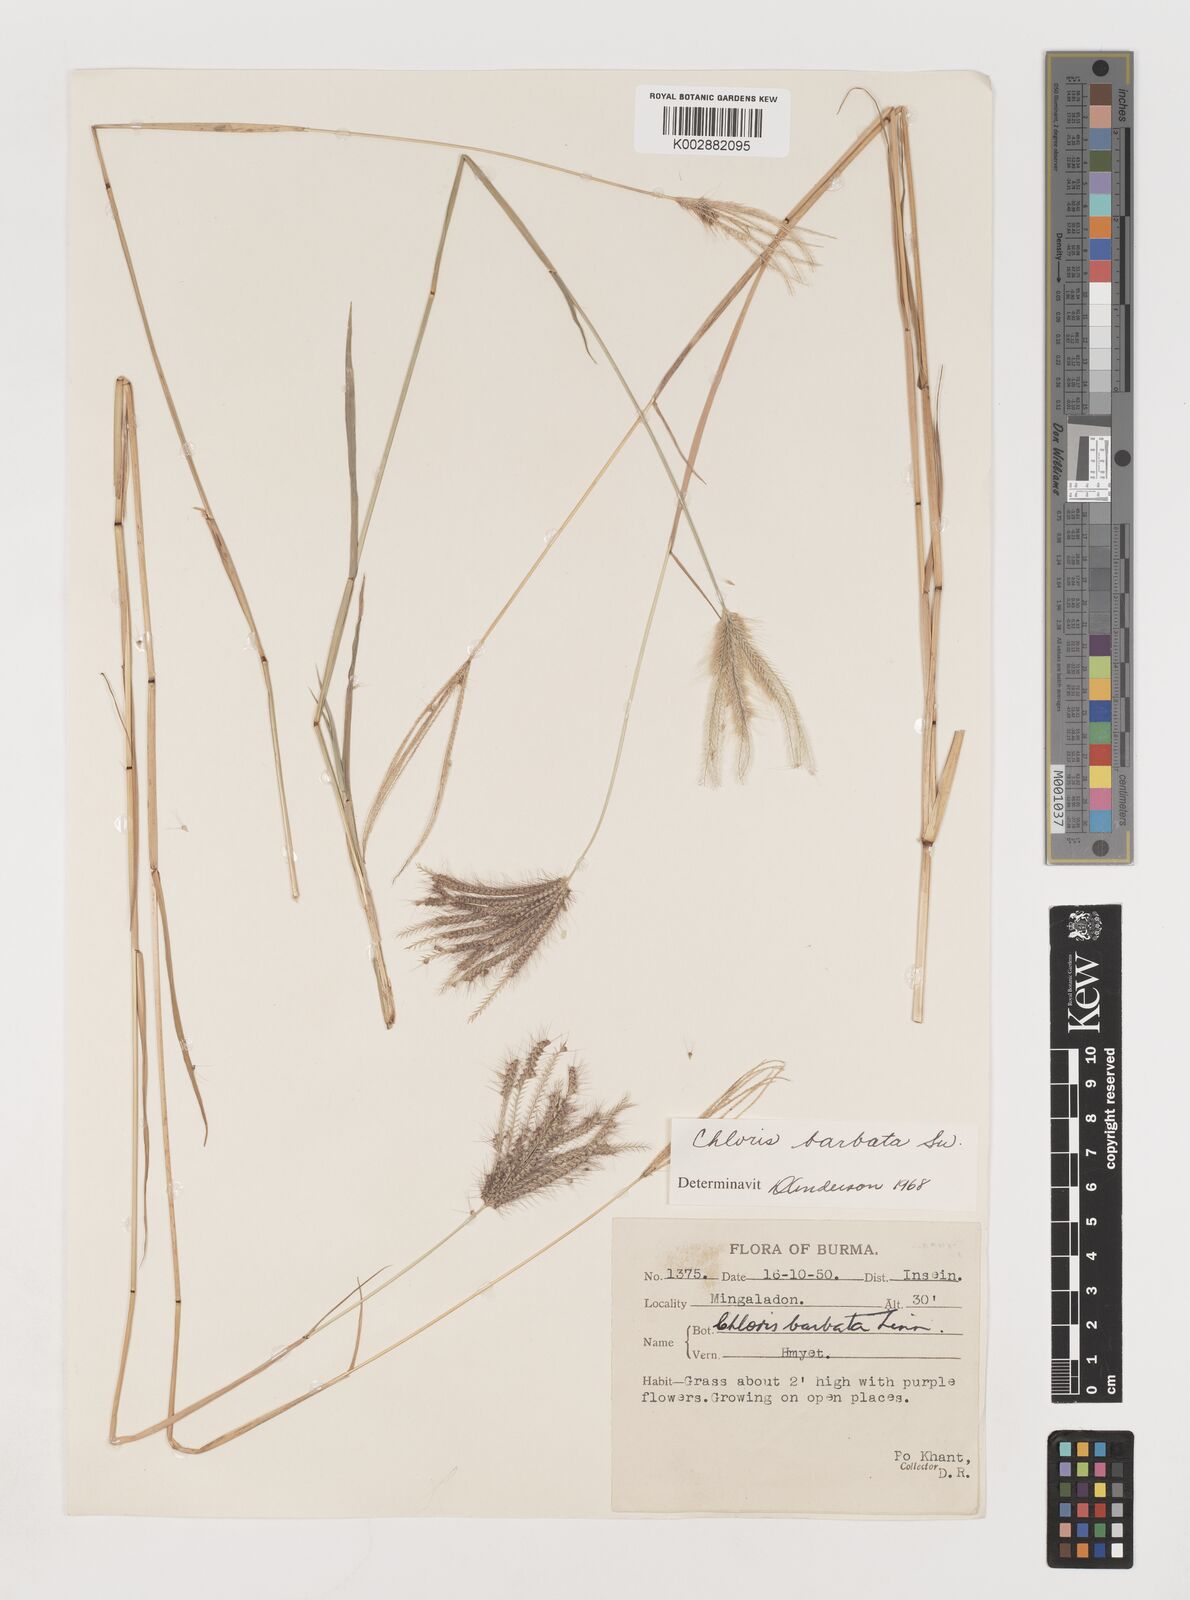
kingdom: Plantae
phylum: Tracheophyta
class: Liliopsida
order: Poales
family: Poaceae
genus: Chloris
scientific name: Chloris barbata
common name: Swollen fingergrass
